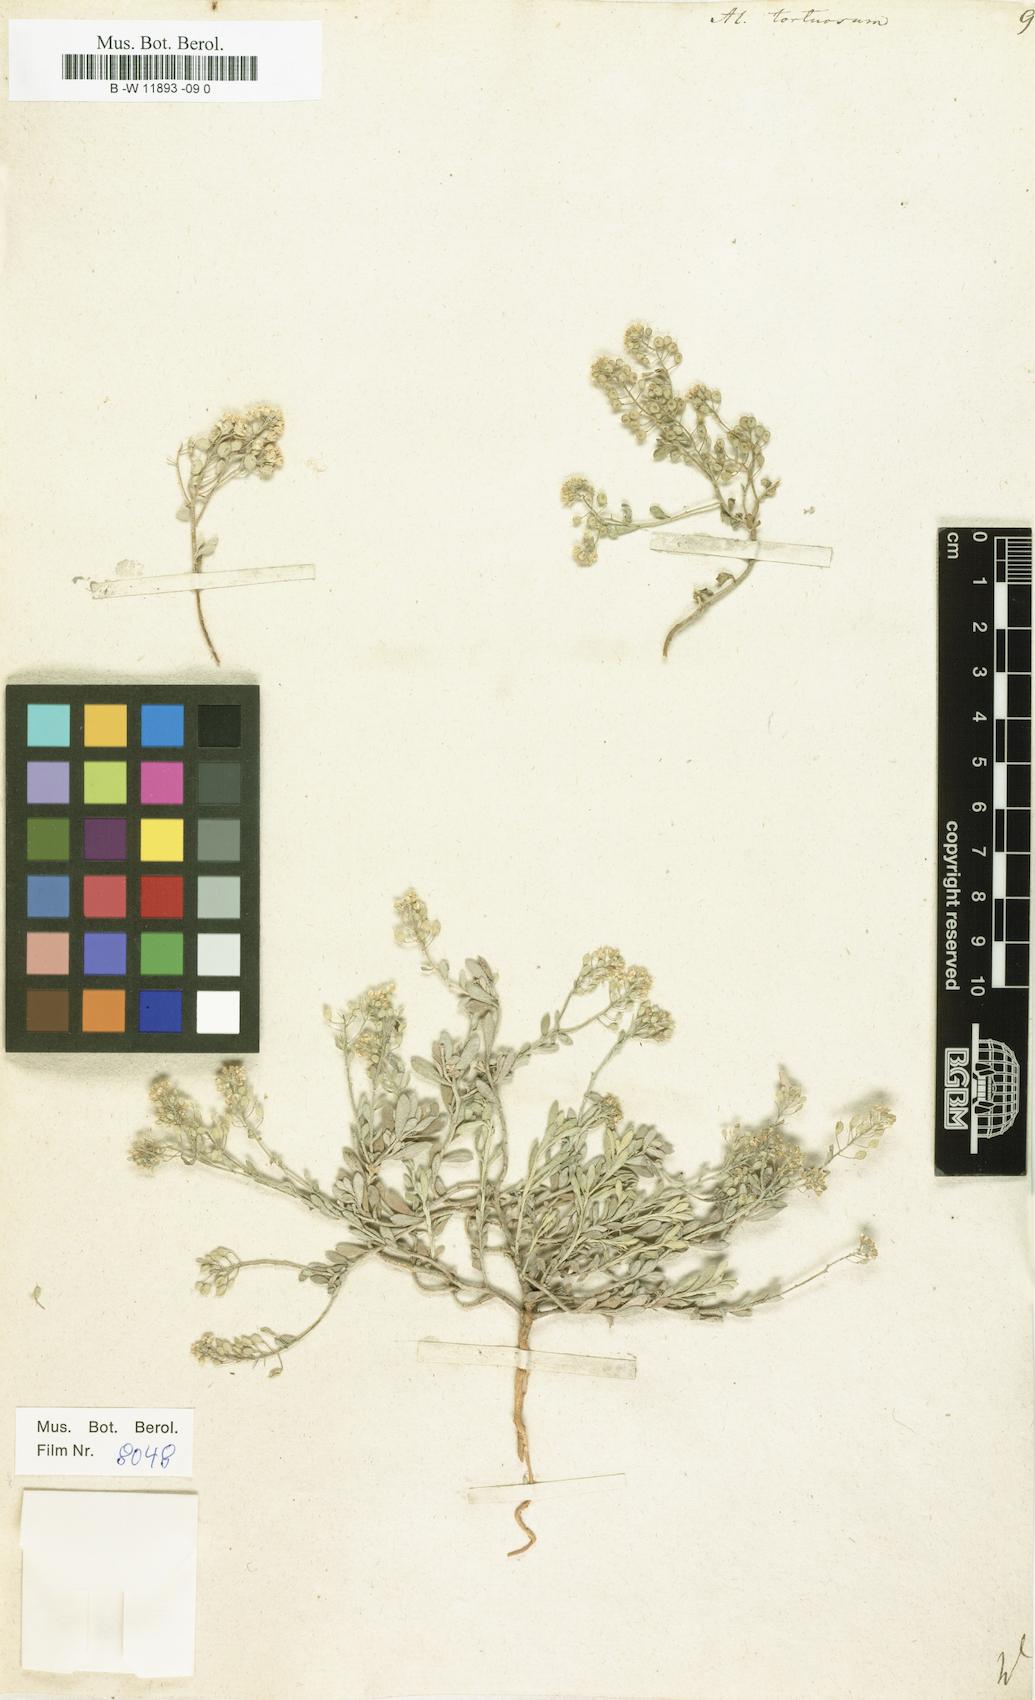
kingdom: Plantae
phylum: Tracheophyta
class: Magnoliopsida
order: Brassicales
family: Brassicaceae
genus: Odontarrhena
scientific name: Odontarrhena tortuosa
